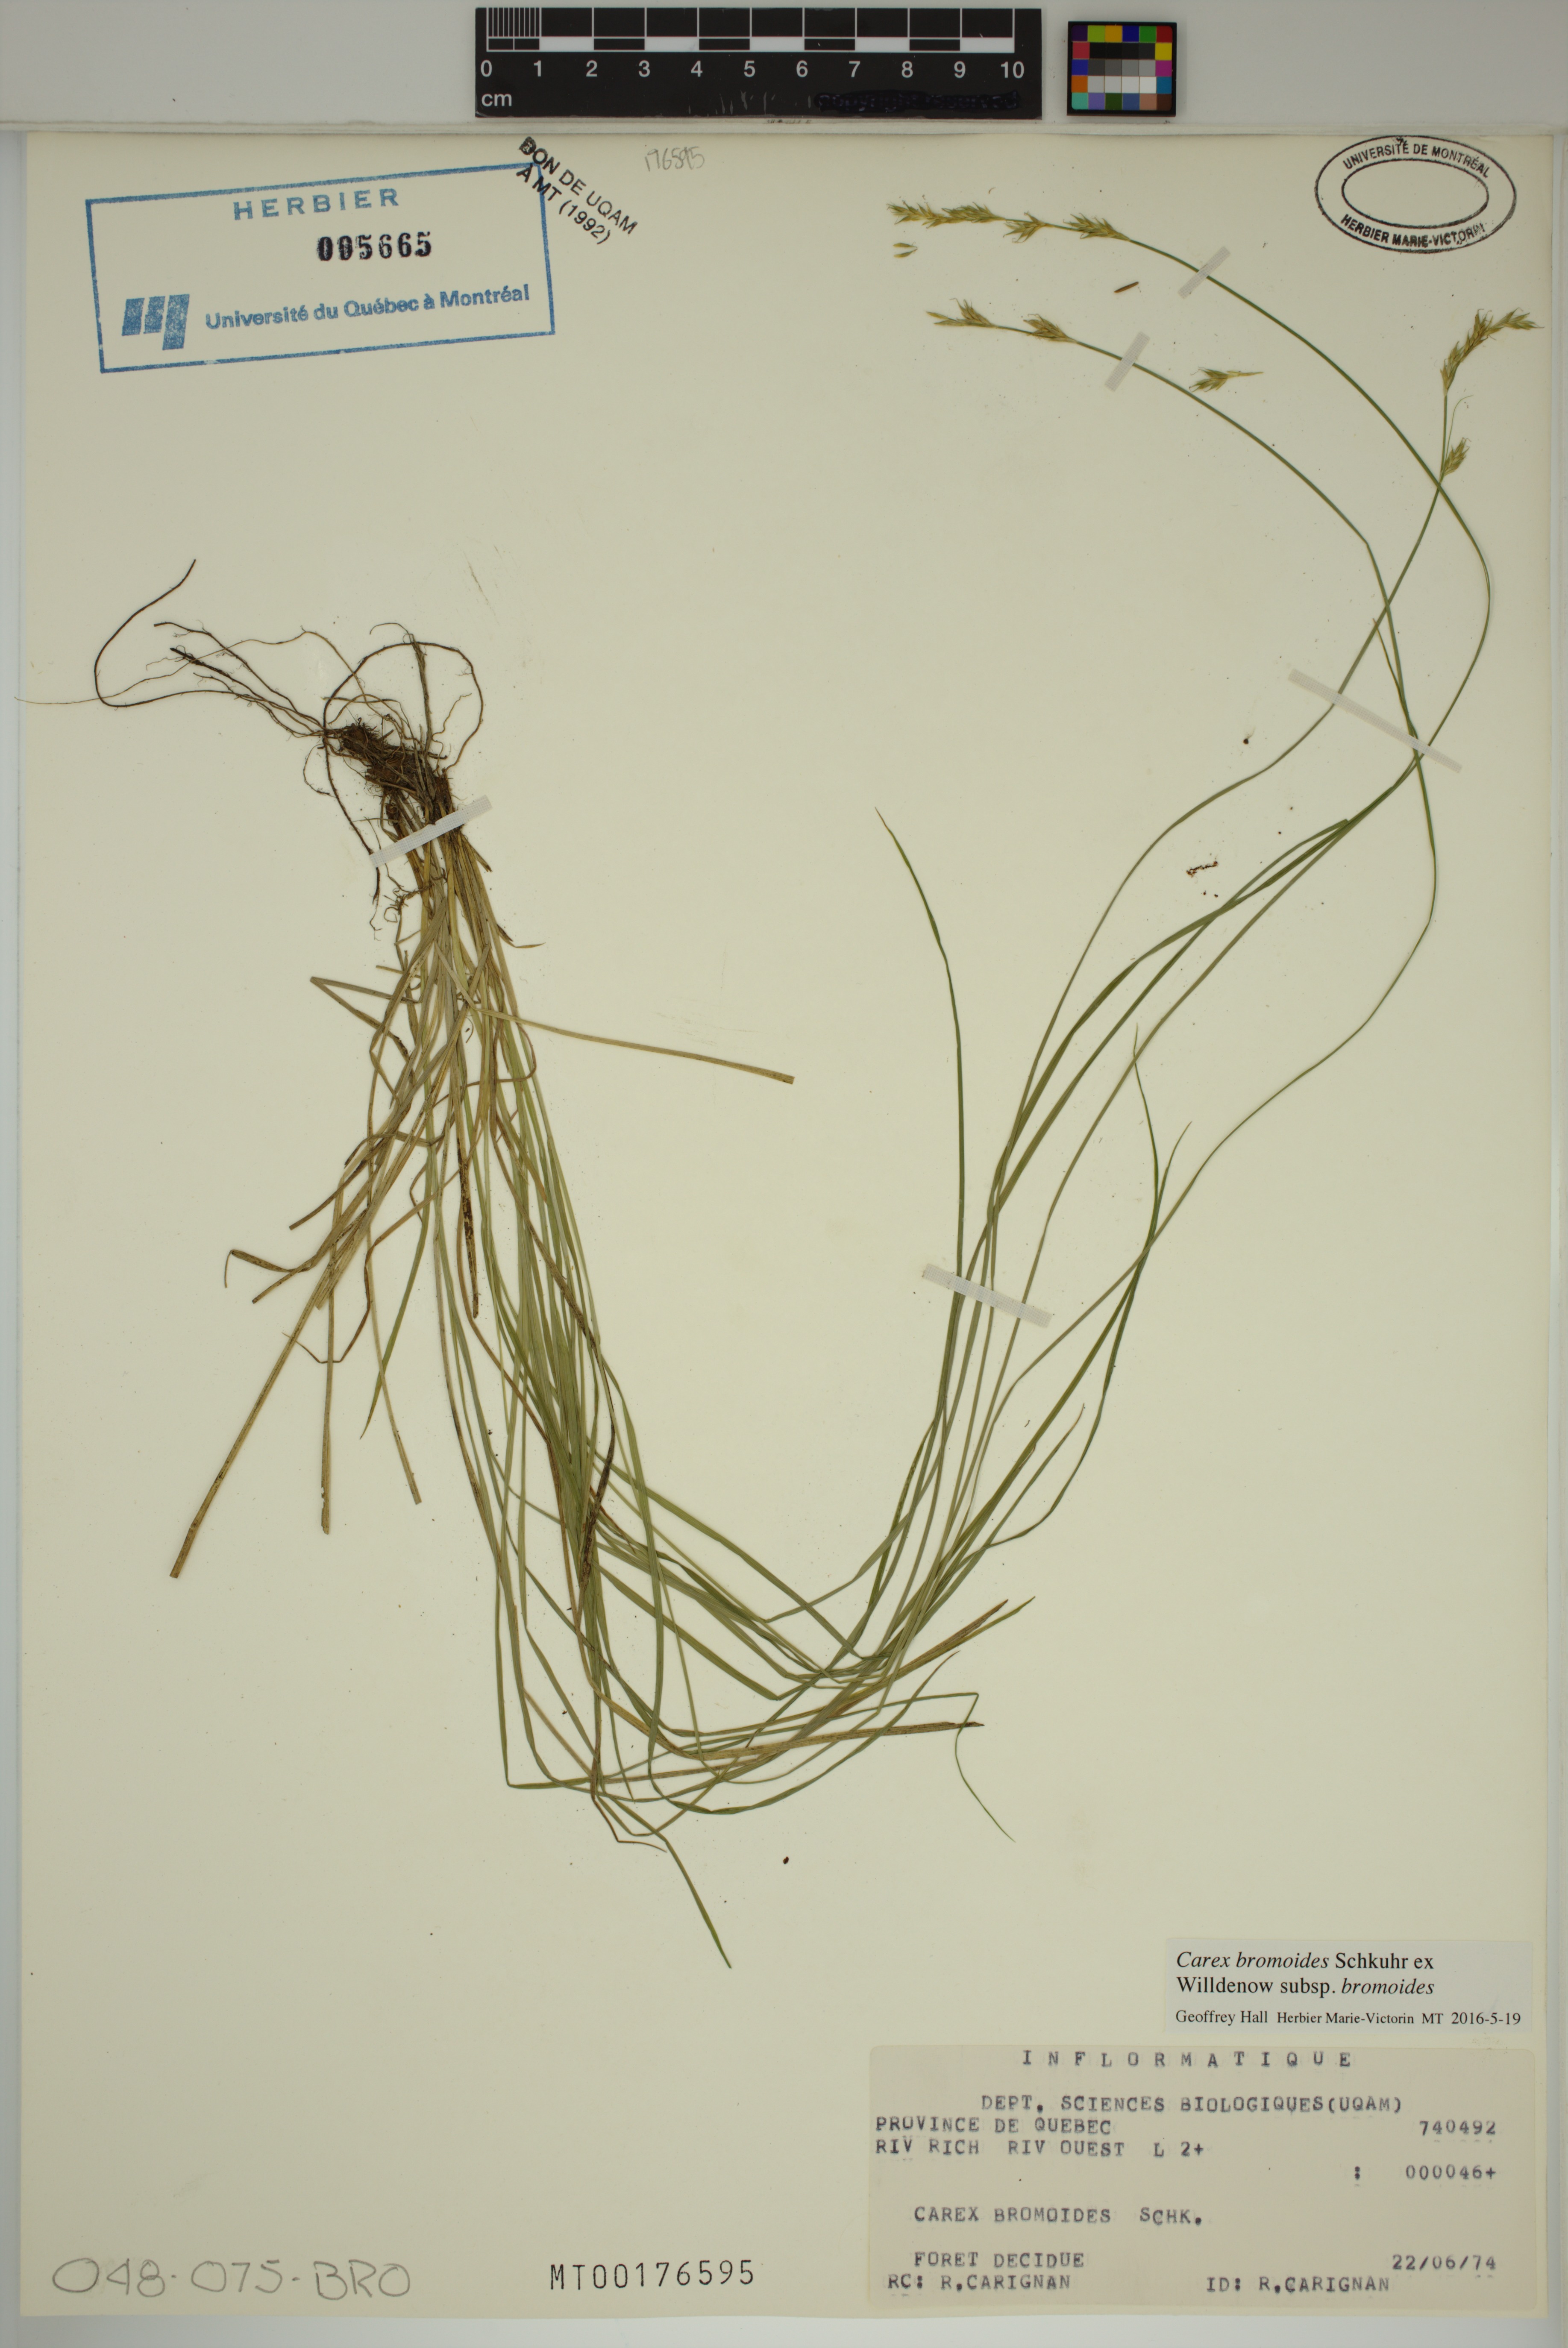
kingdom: Plantae
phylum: Tracheophyta
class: Liliopsida
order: Poales
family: Cyperaceae
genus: Carex
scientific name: Carex bromoides
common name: Brome hummock sedge
